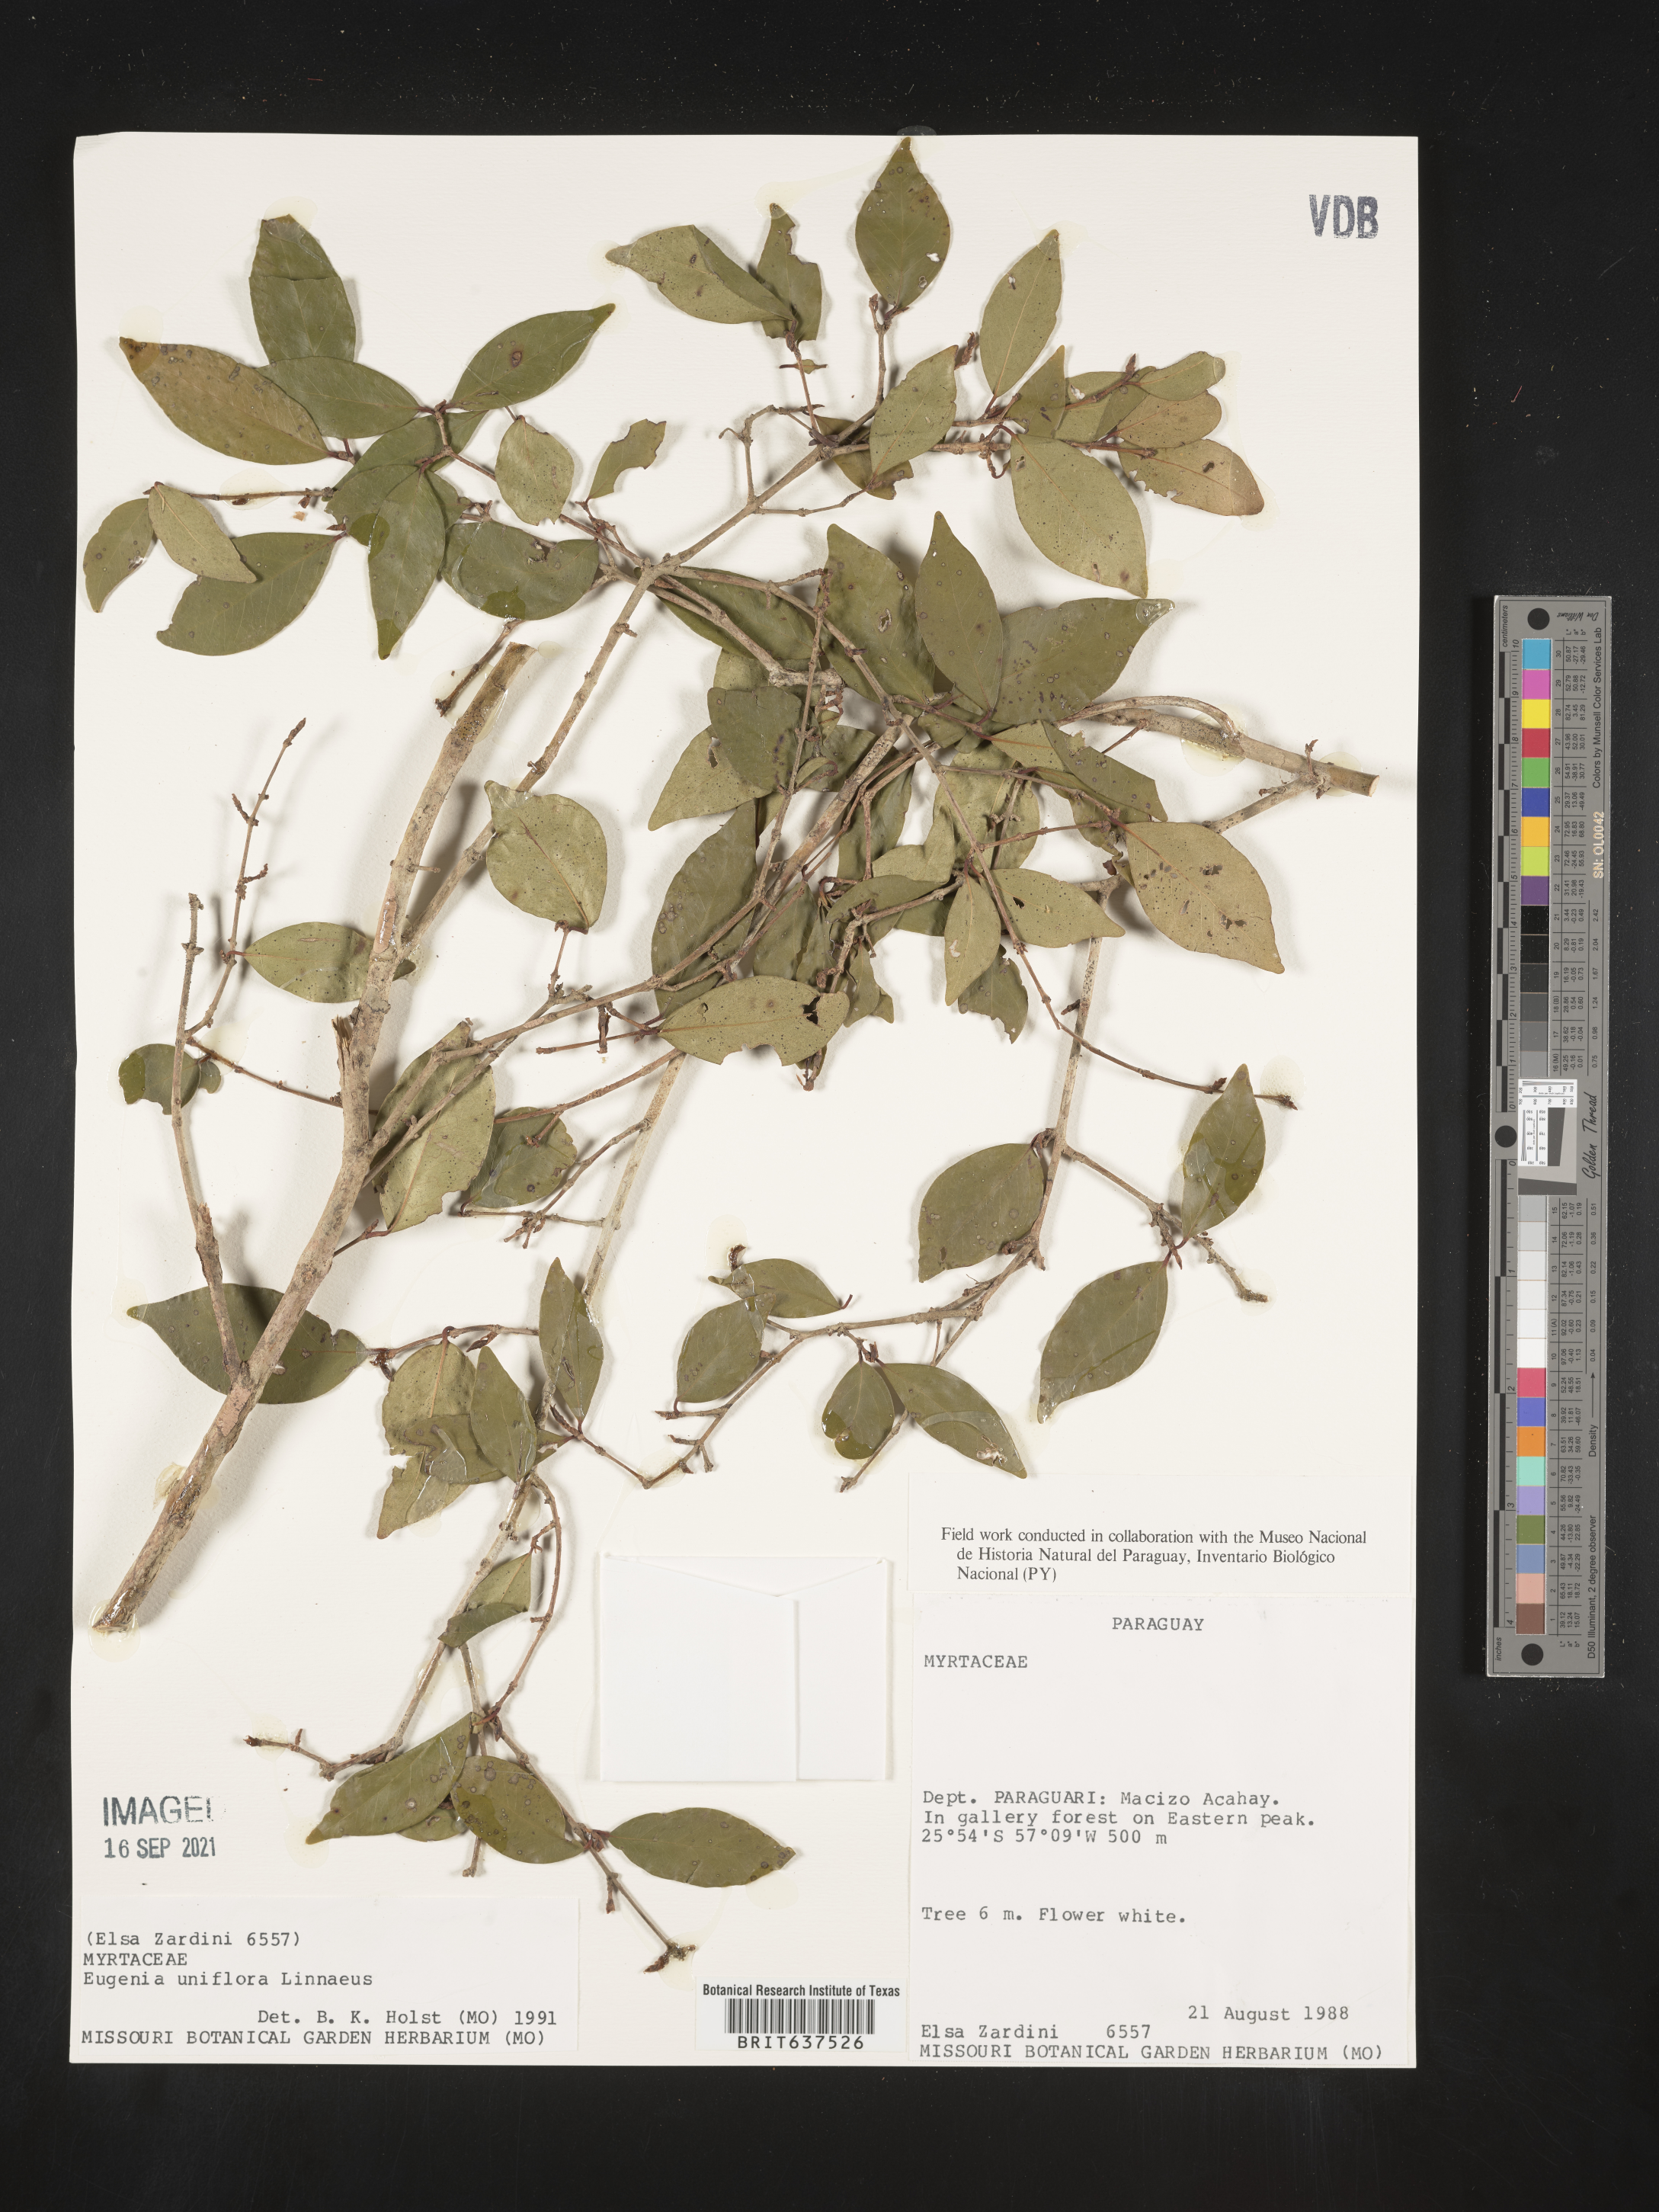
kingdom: Plantae
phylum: Tracheophyta
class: Magnoliopsida
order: Myrtales
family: Myrtaceae
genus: Eugenia
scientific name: Eugenia
